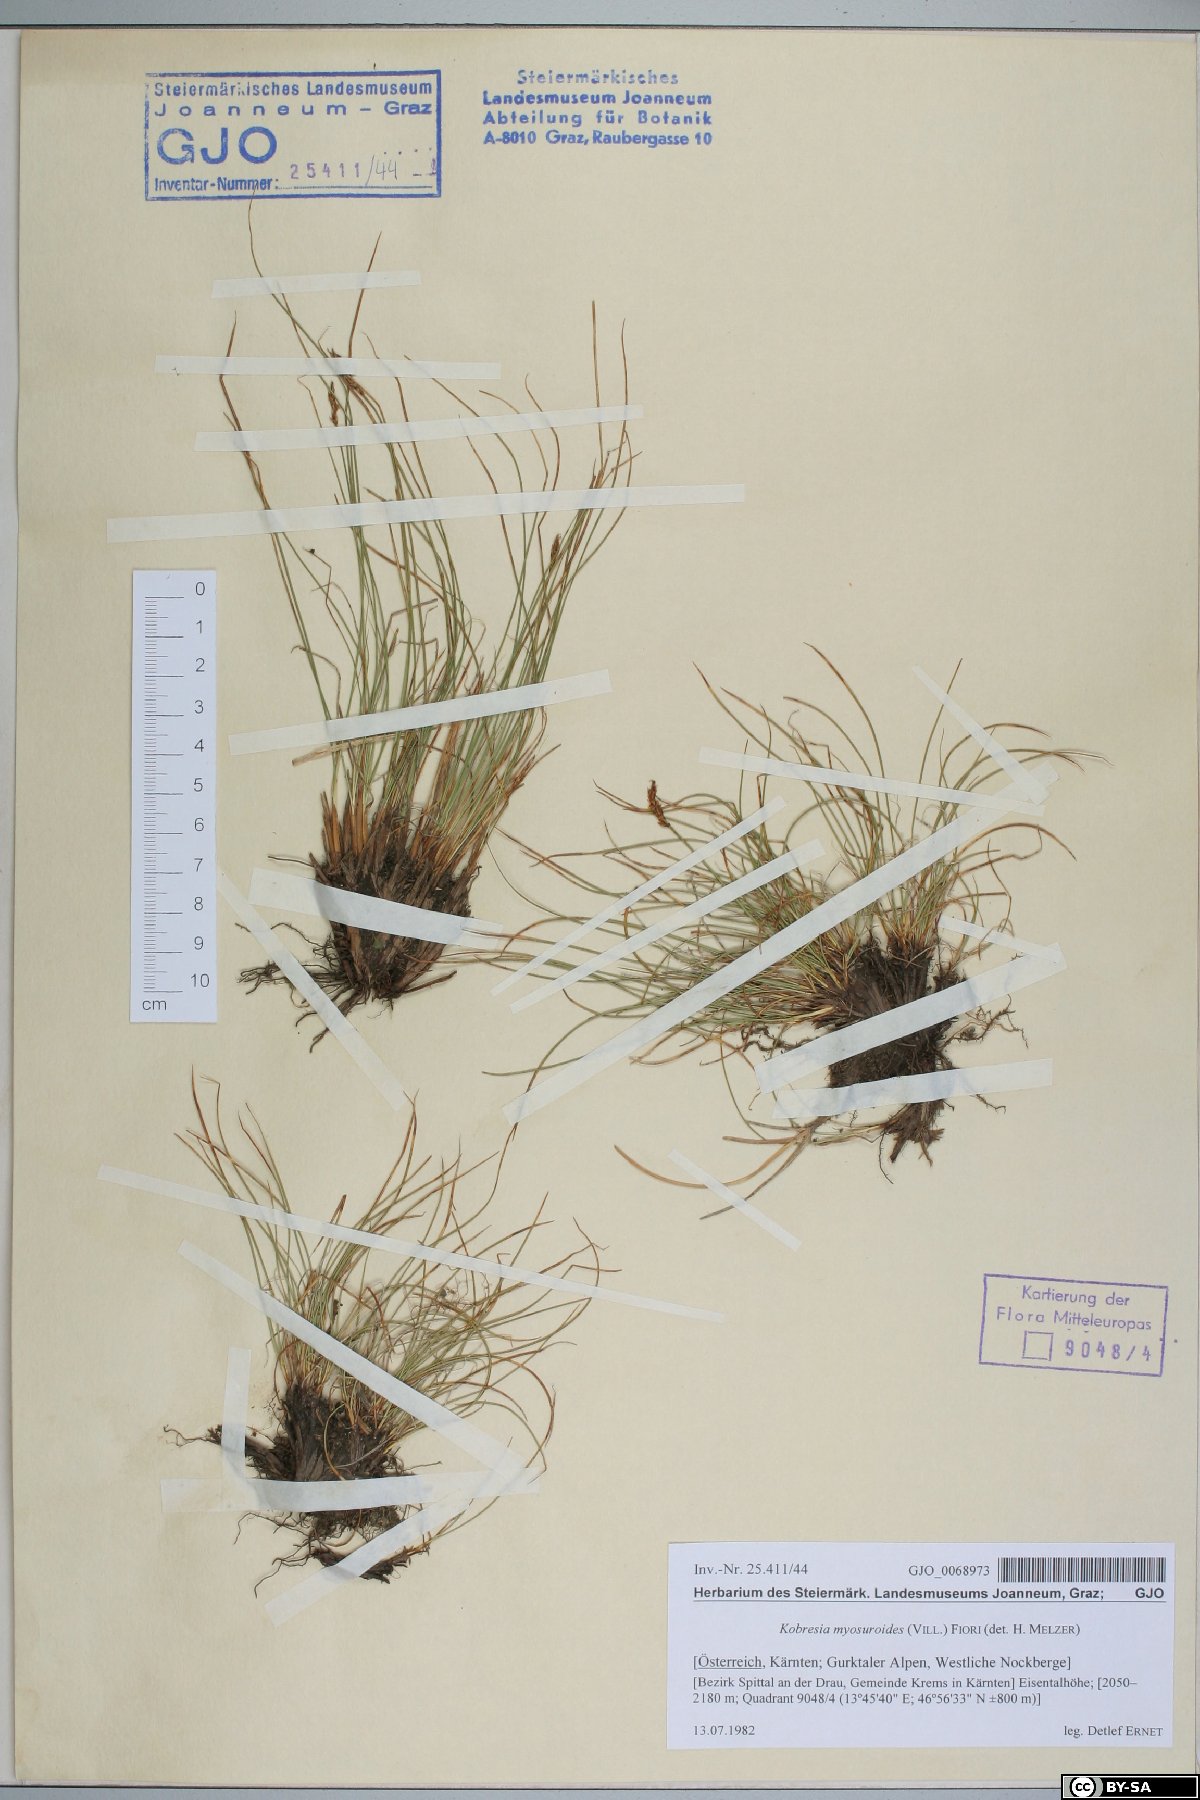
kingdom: Plantae
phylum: Tracheophyta
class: Liliopsida
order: Poales
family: Cyperaceae
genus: Carex
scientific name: Carex myosuroides
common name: Bellard's bog sedge
